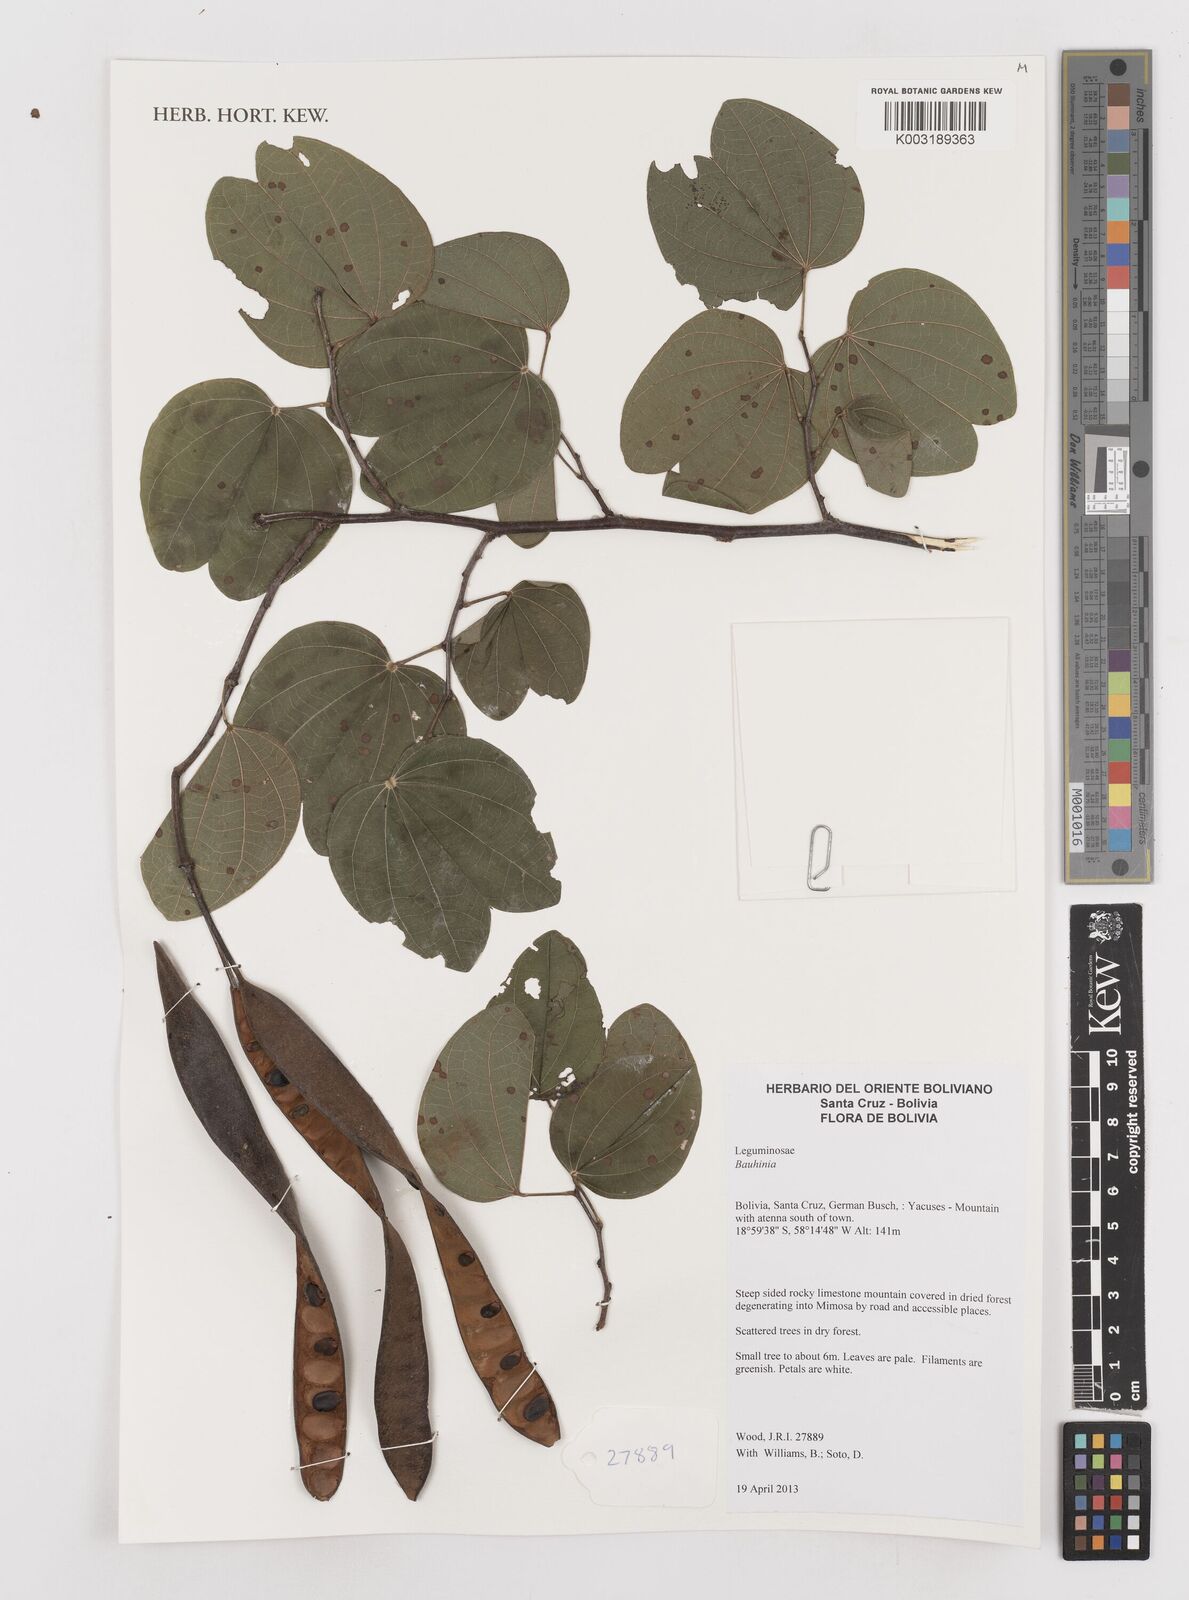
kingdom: Plantae
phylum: Tracheophyta
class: Magnoliopsida
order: Fabales
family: Fabaceae
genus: Bauhinia
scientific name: Bauhinia
